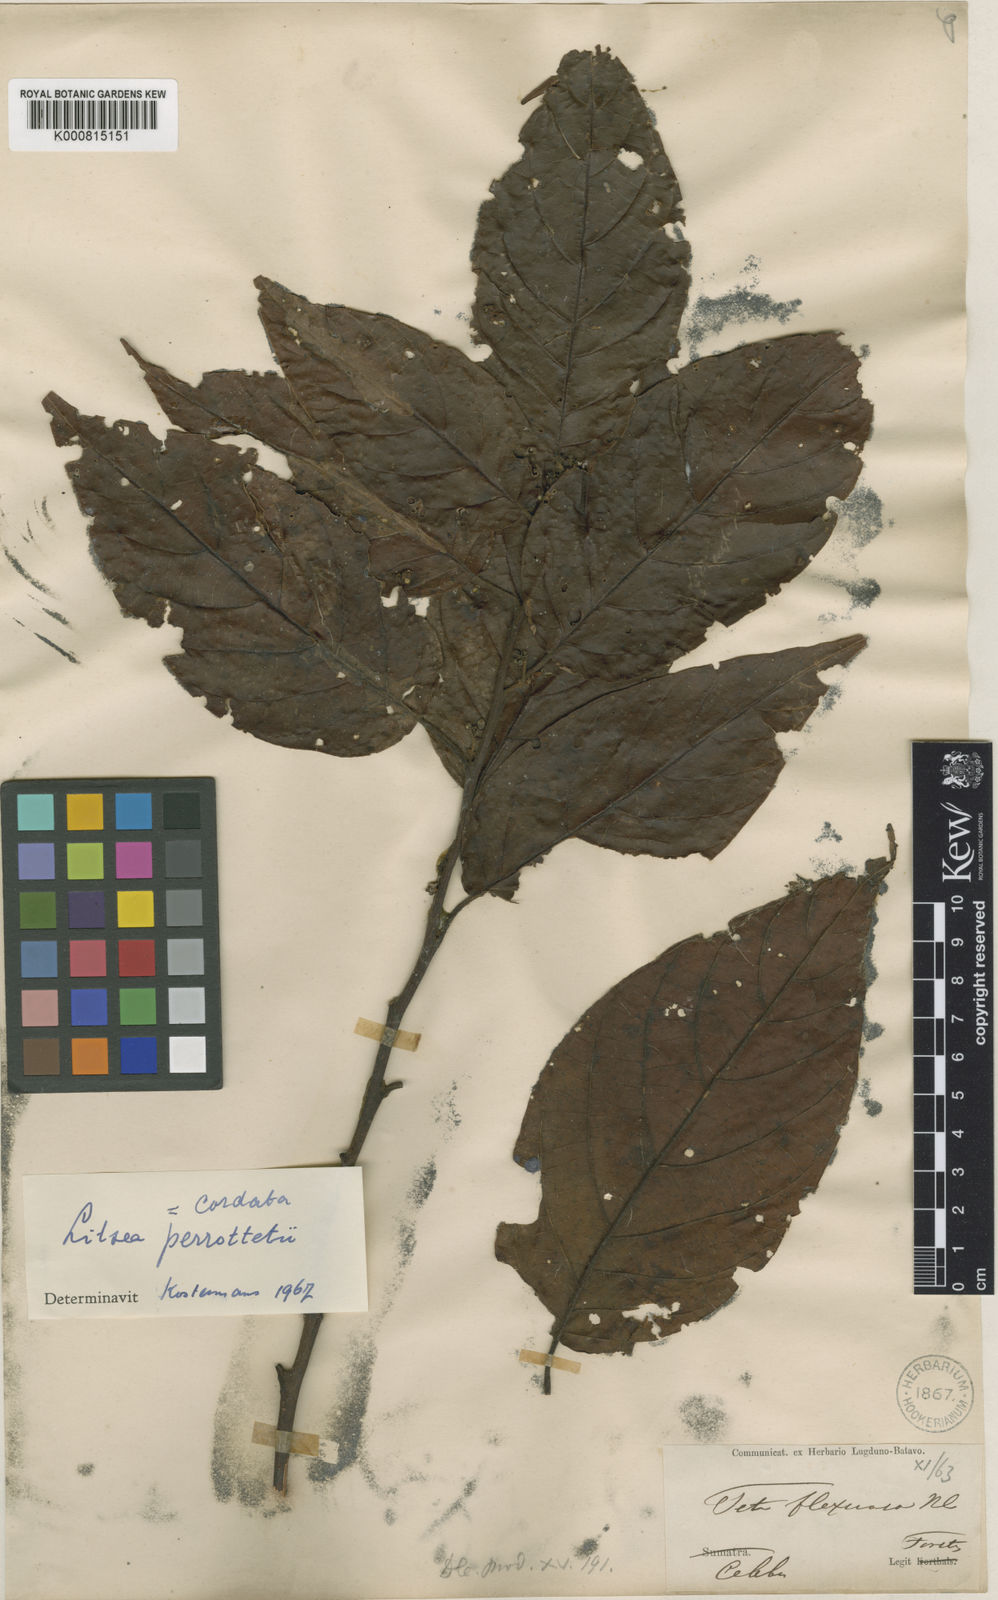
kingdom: Plantae
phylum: Tracheophyta
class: Magnoliopsida
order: Laurales
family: Lauraceae
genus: Litsea
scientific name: Litsea cordata
